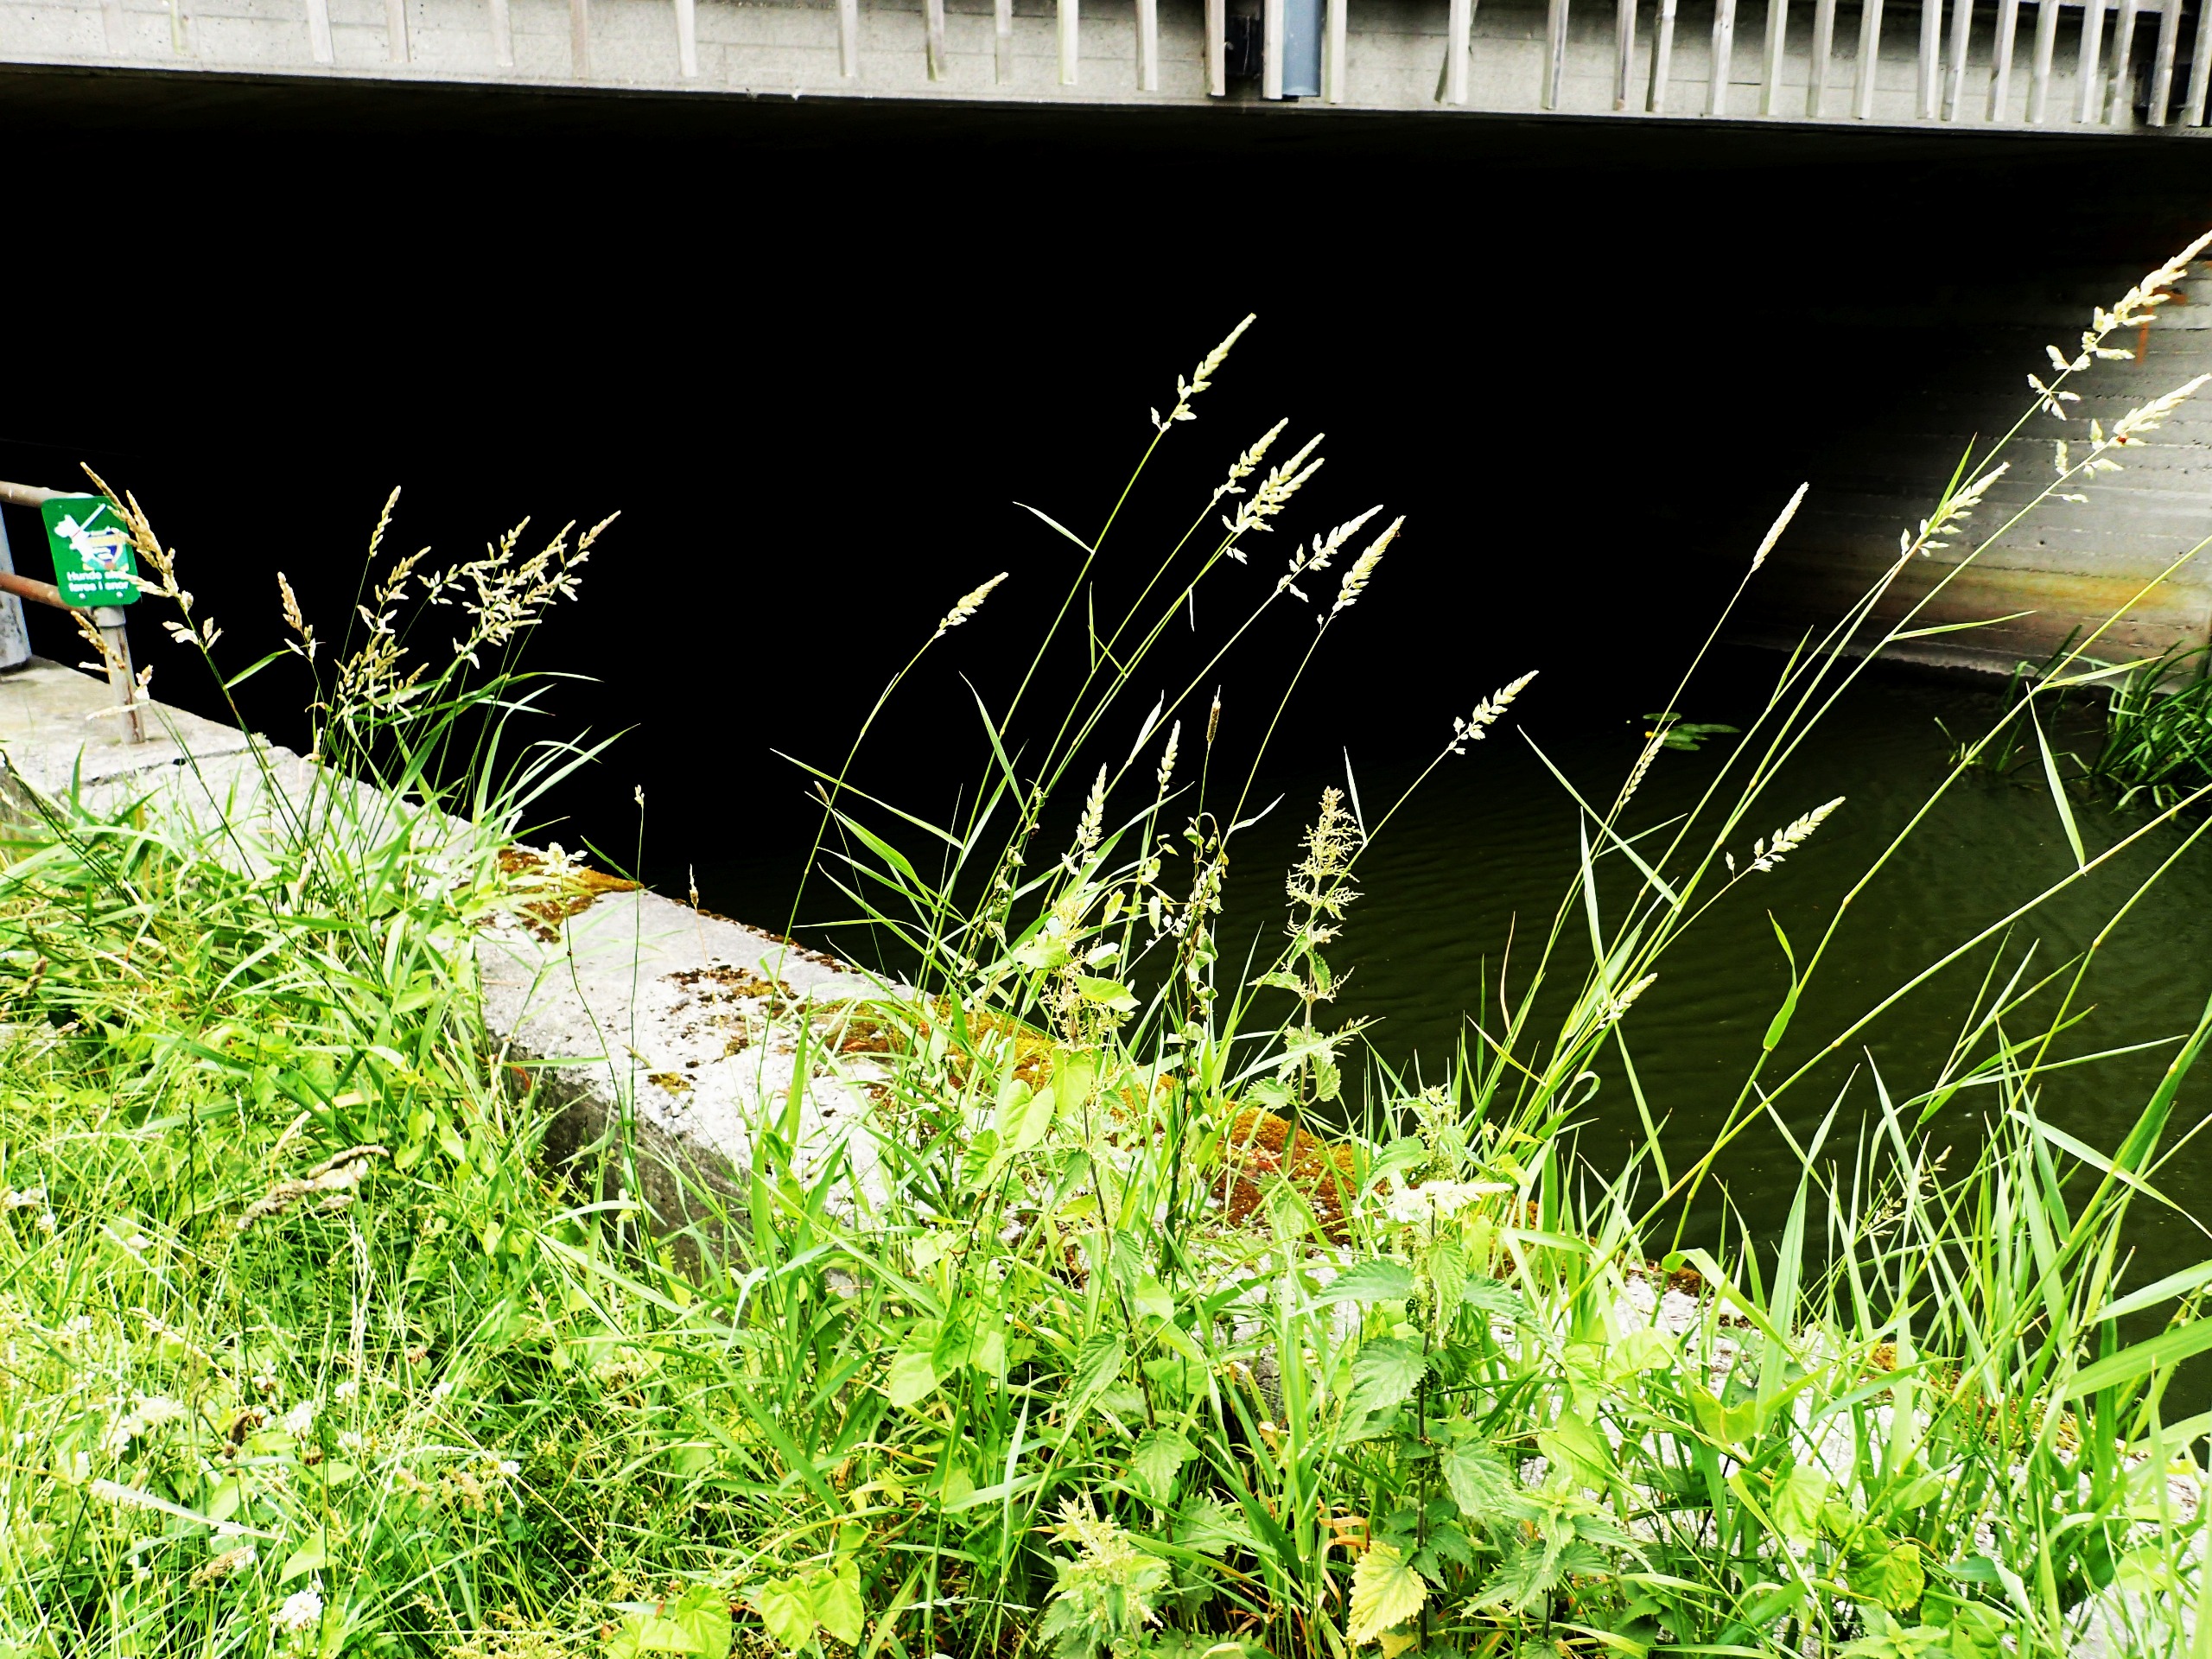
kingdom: Plantae
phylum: Tracheophyta
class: Liliopsida
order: Poales
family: Poaceae
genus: Phalaris
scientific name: Phalaris arundinacea
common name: Rørgræs
